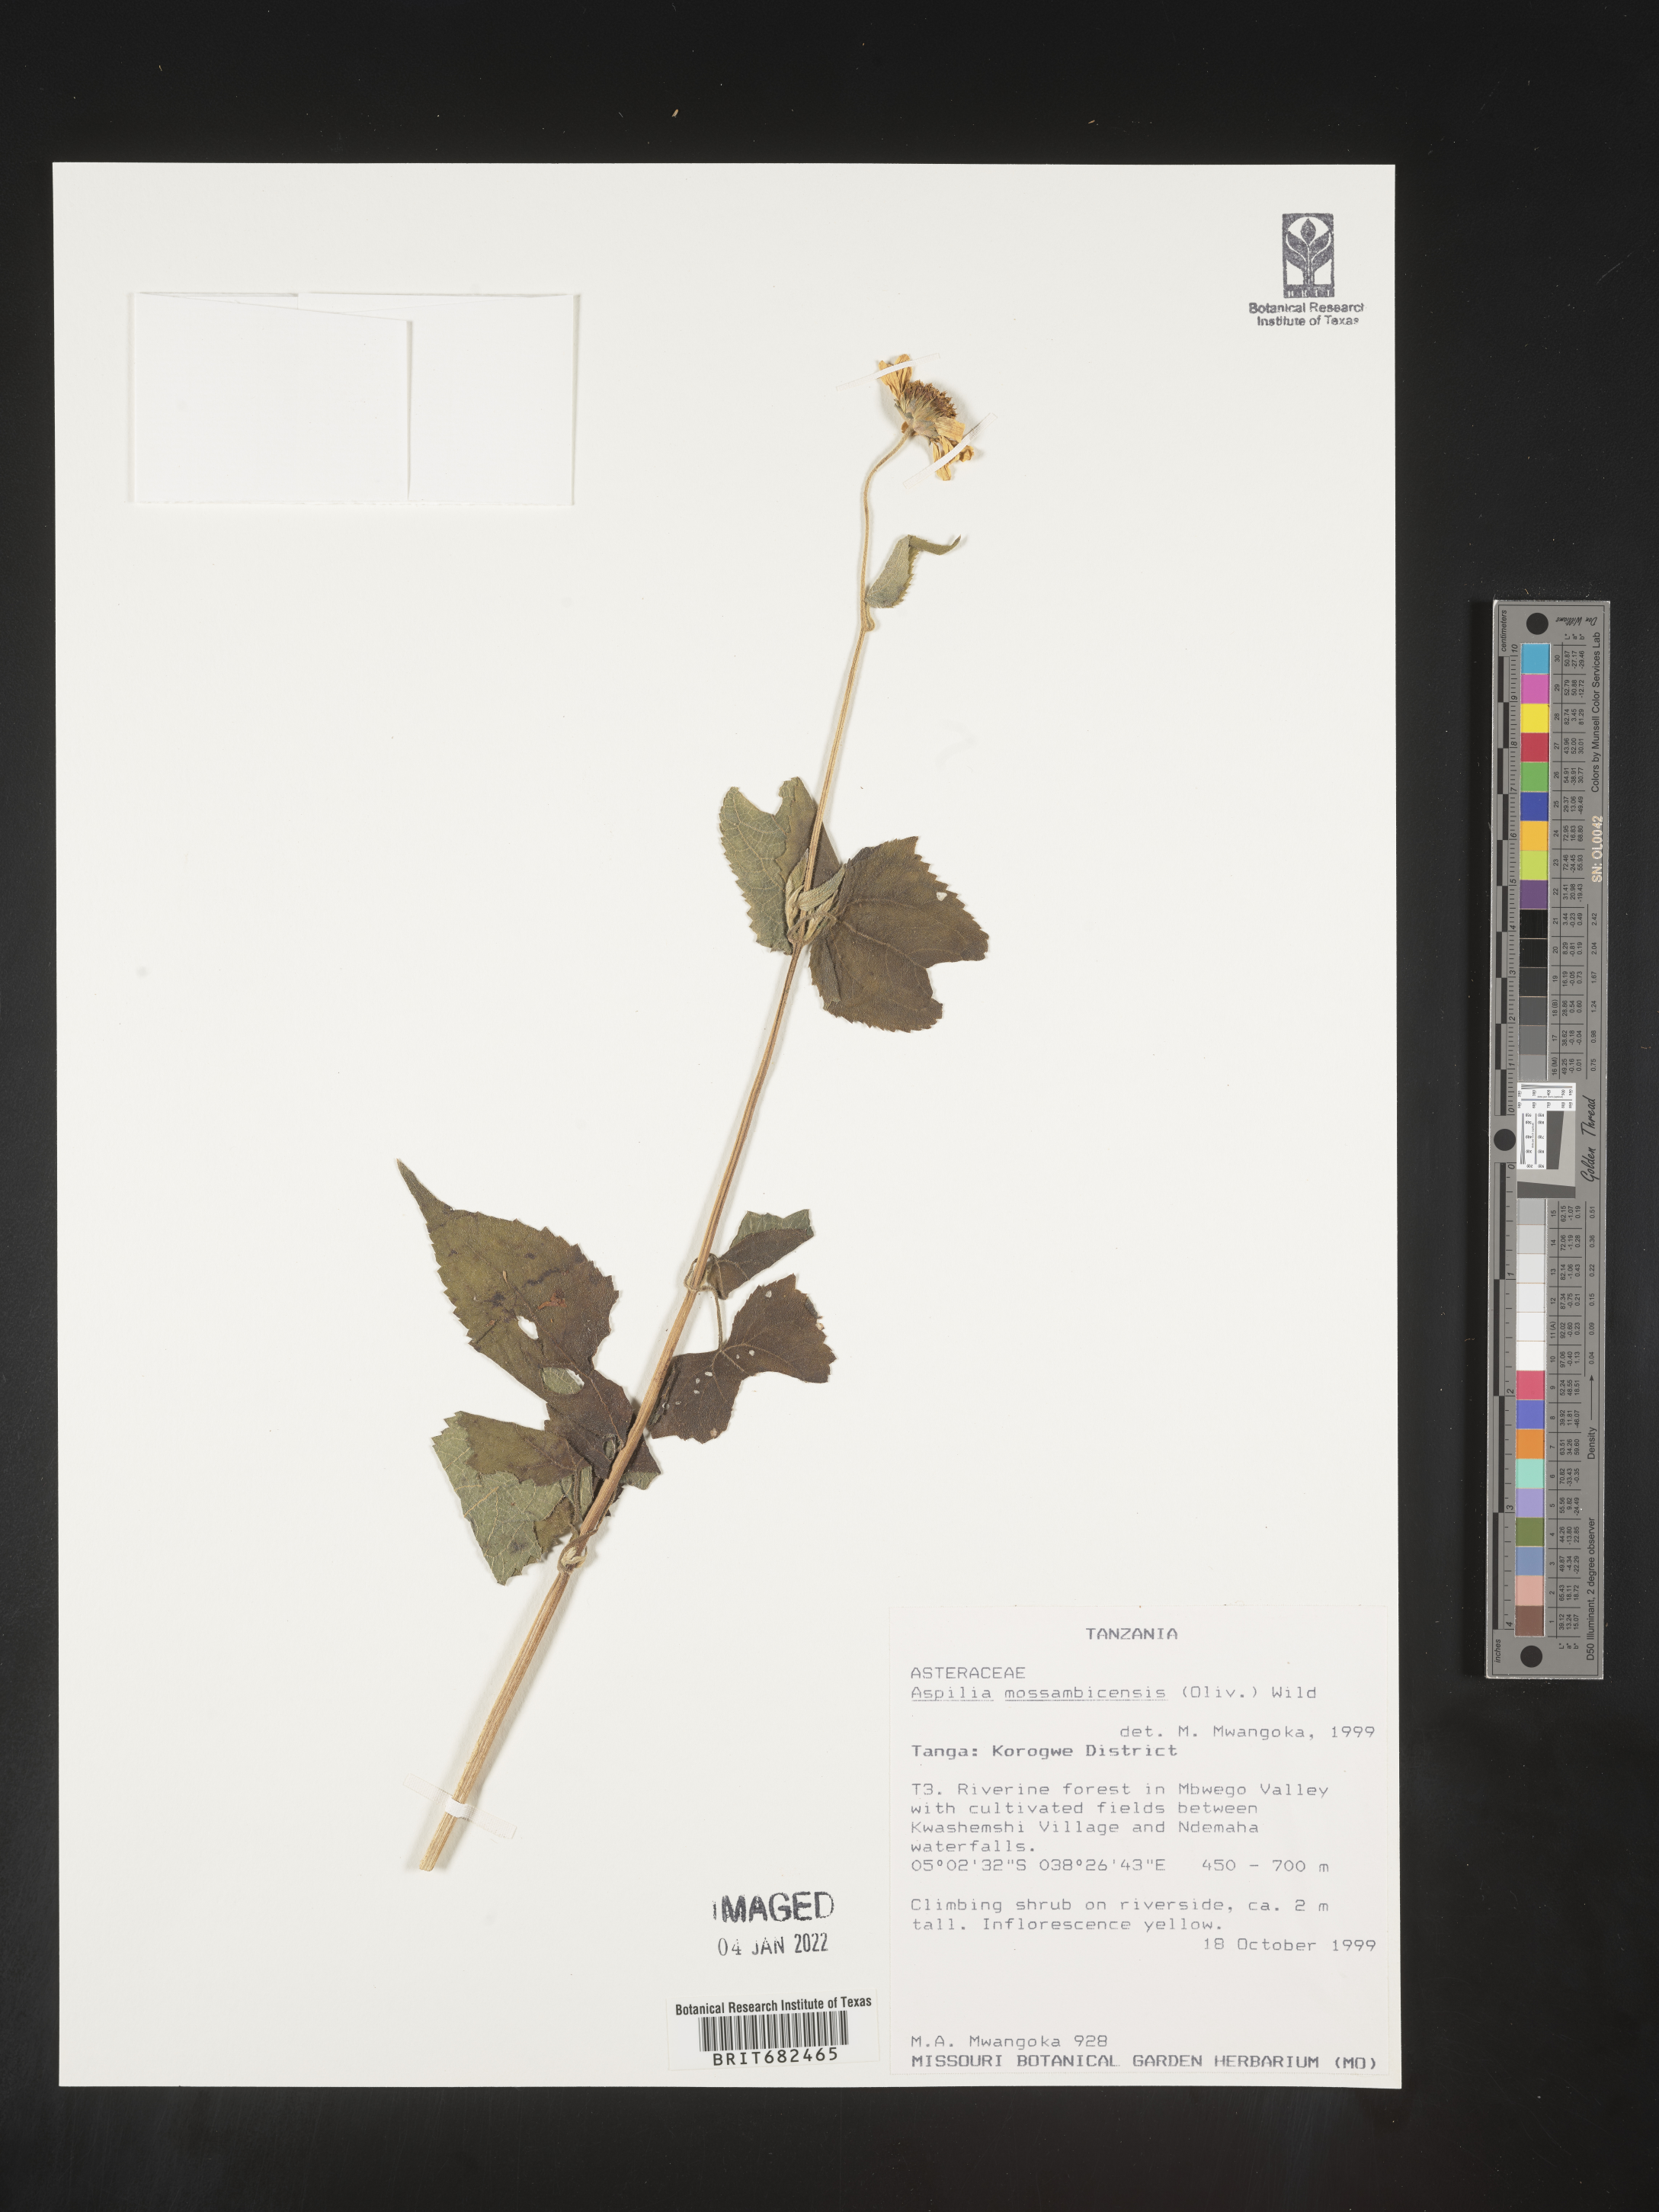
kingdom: Plantae
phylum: Tracheophyta
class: Magnoliopsida
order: Asterales
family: Asteraceae
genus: Aspilia
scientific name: Aspilia
